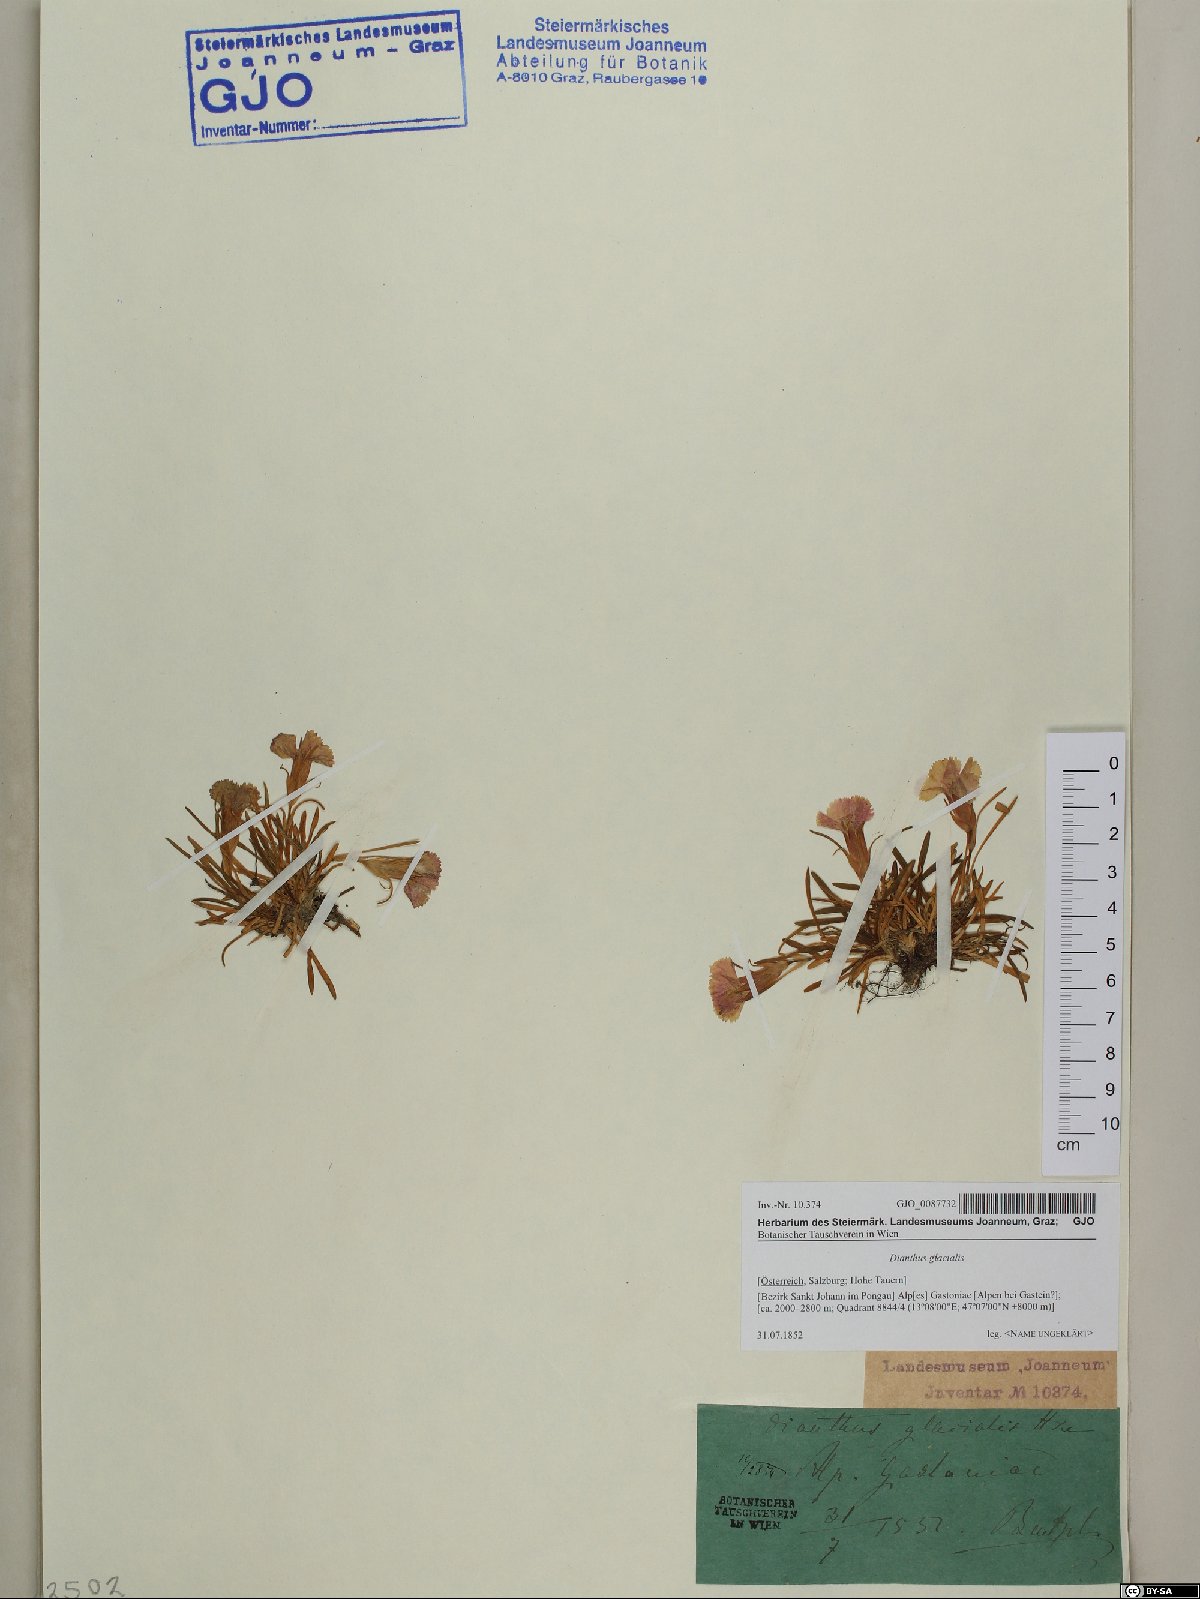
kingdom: Plantae
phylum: Tracheophyta
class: Magnoliopsida
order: Caryophyllales
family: Caryophyllaceae
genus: Dianthus
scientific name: Dianthus glacialis
